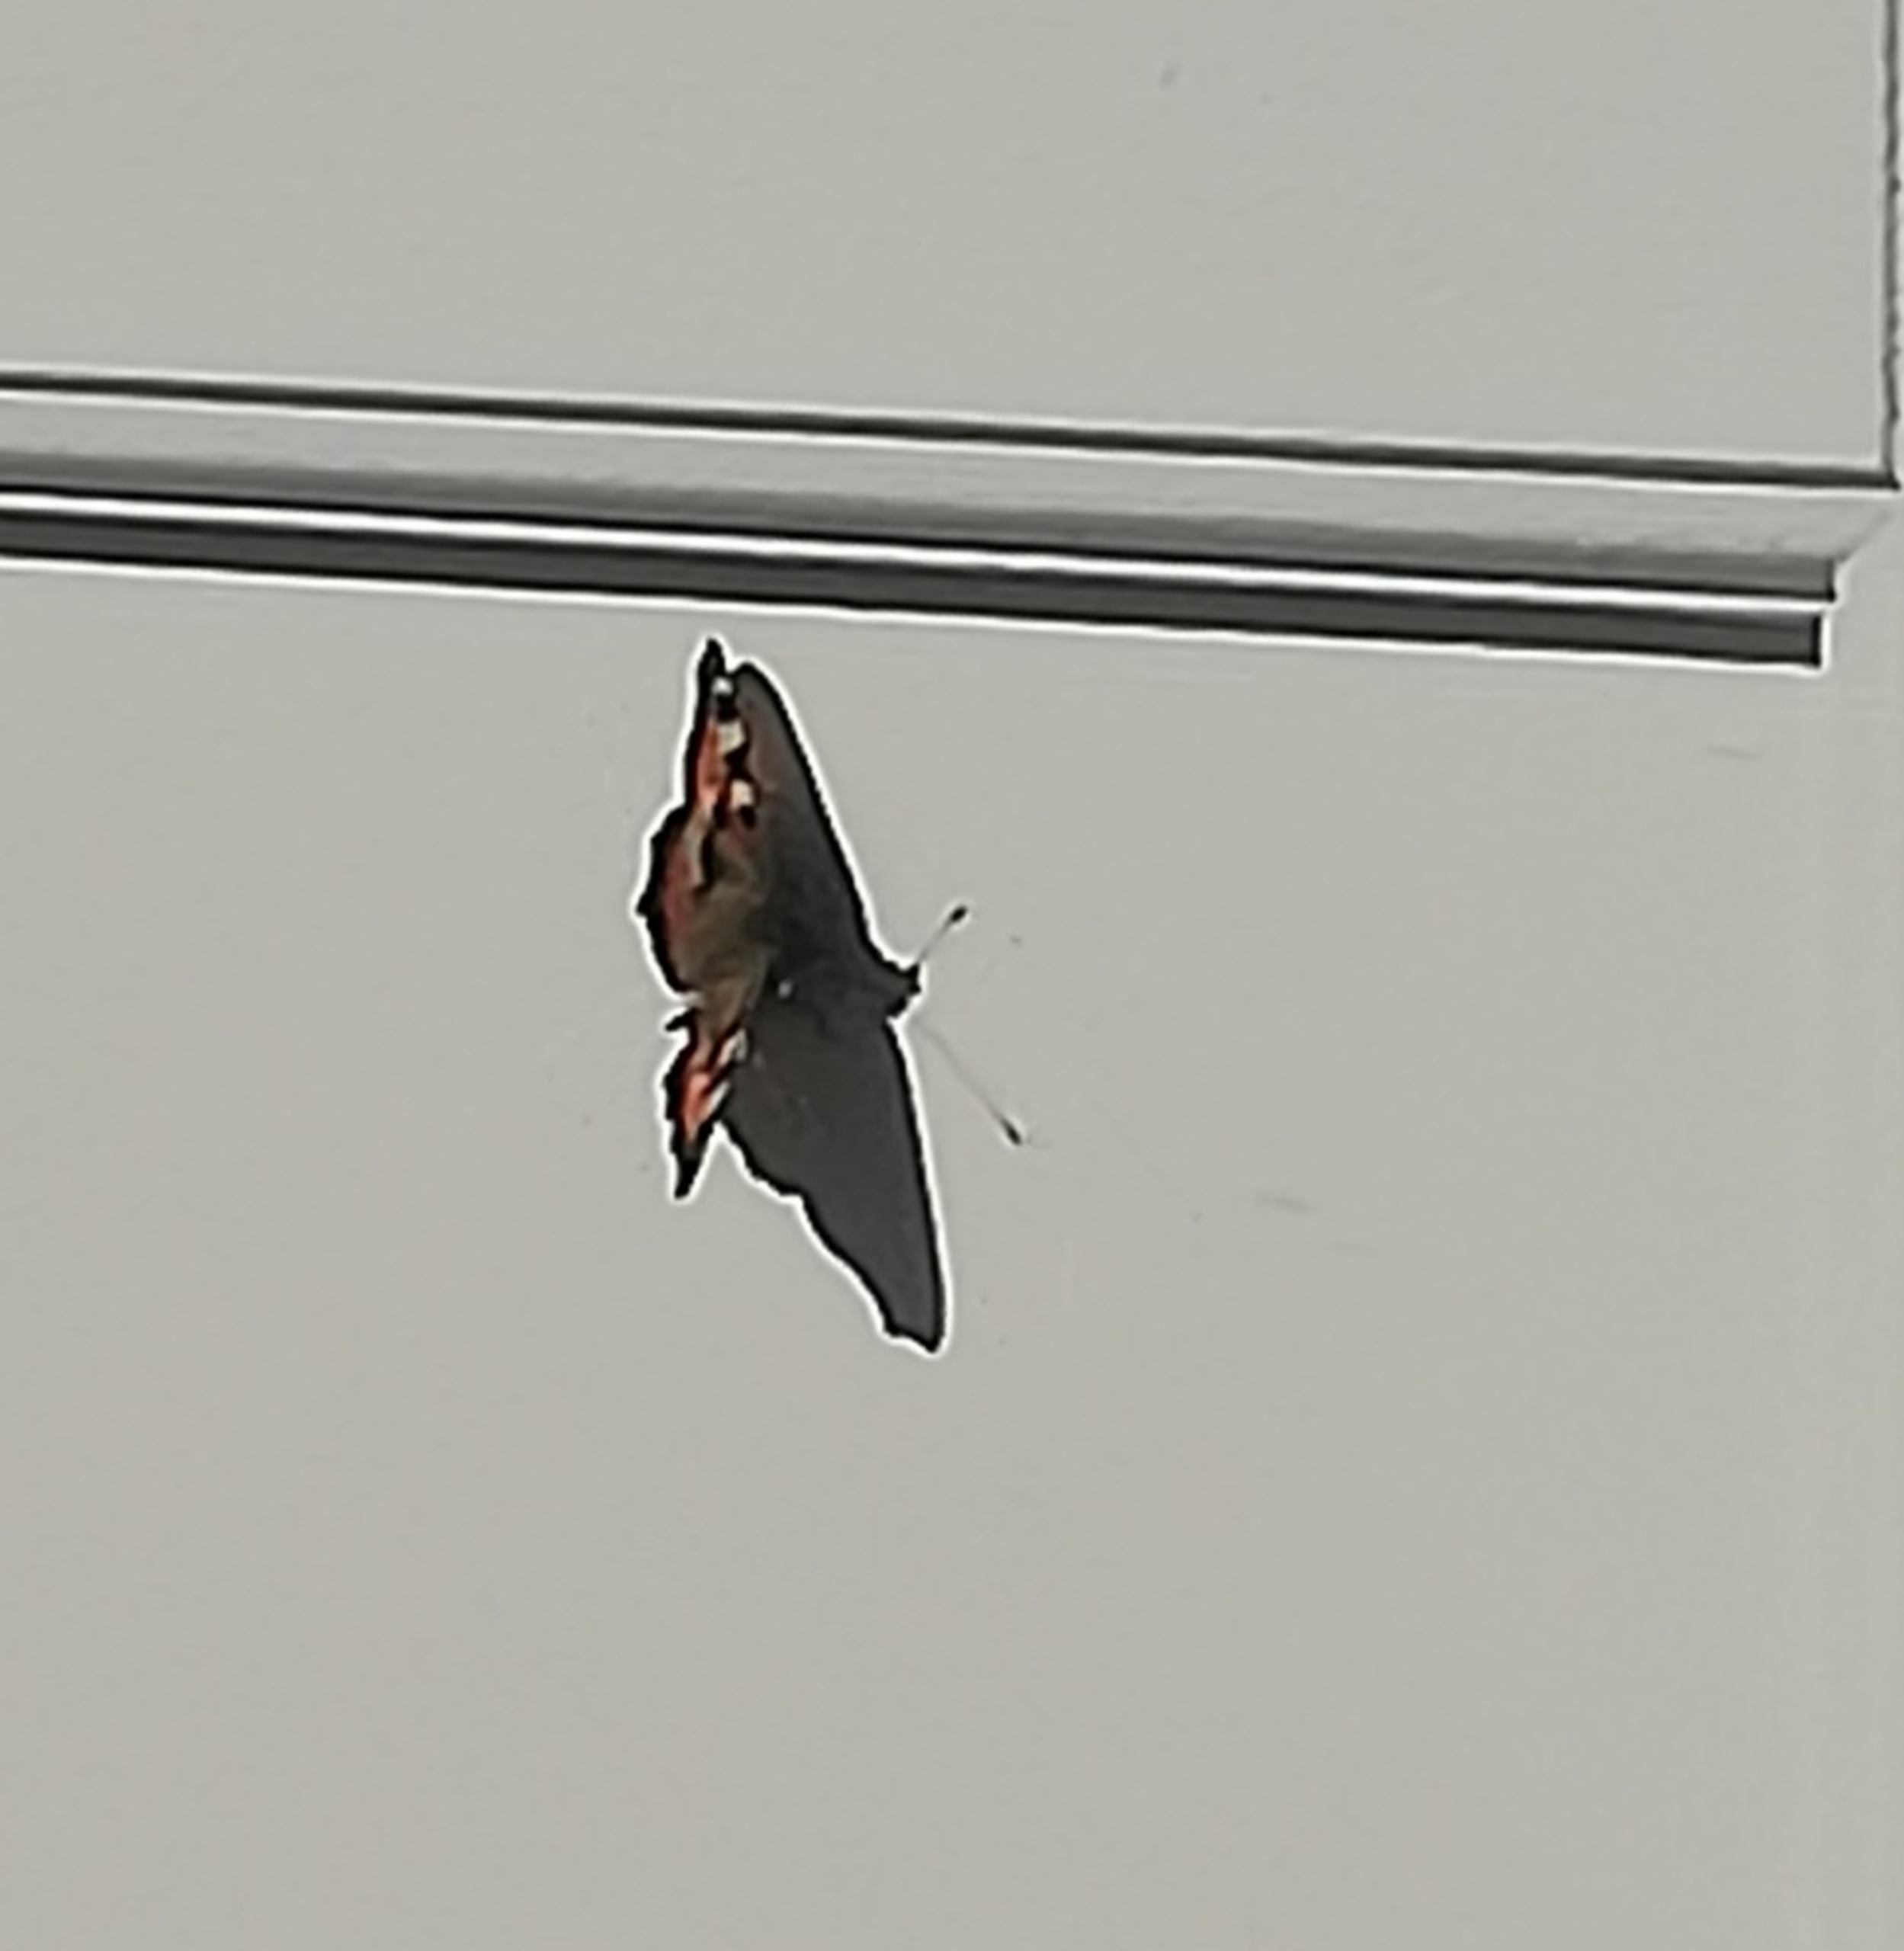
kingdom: Animalia
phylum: Arthropoda
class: Insecta
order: Lepidoptera
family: Nymphalidae
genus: Aglais
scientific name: Aglais urticae
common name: Nældens takvinge
